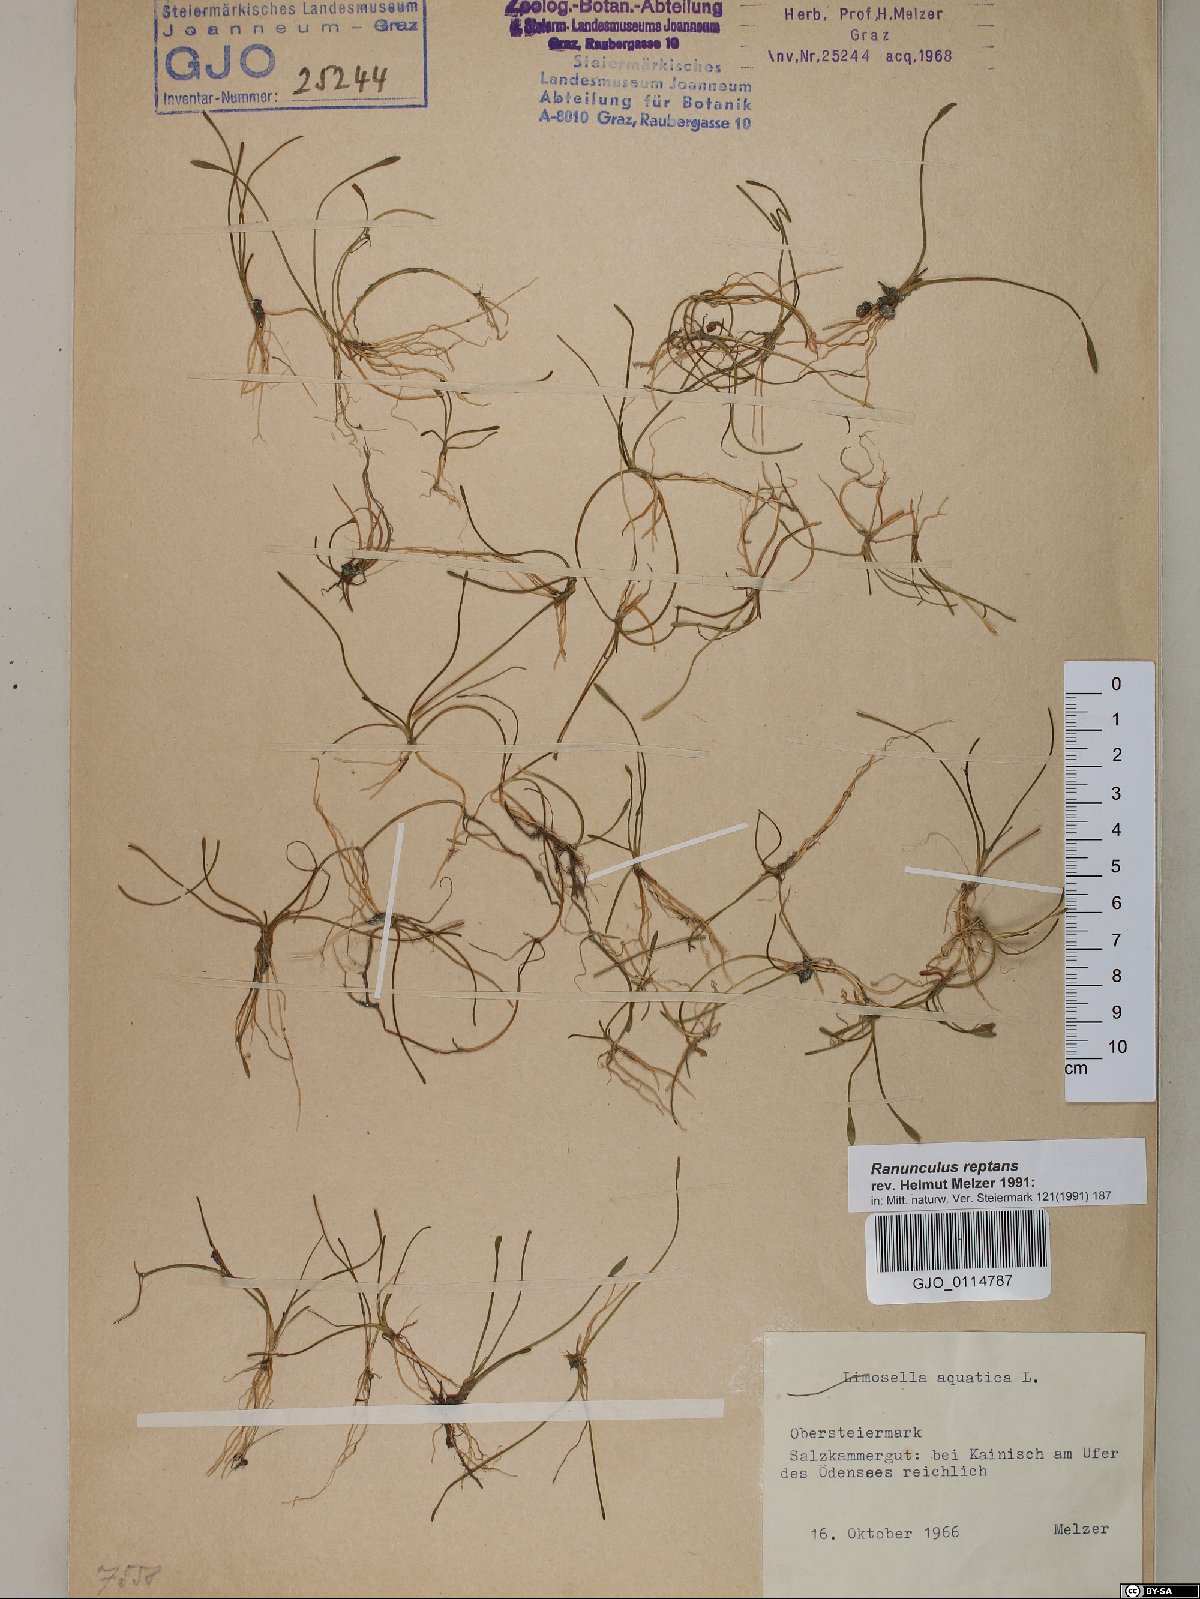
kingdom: Plantae
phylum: Tracheophyta
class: Magnoliopsida
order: Ranunculales
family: Ranunculaceae
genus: Ranunculus
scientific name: Ranunculus reptans
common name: Creeping spearwort
